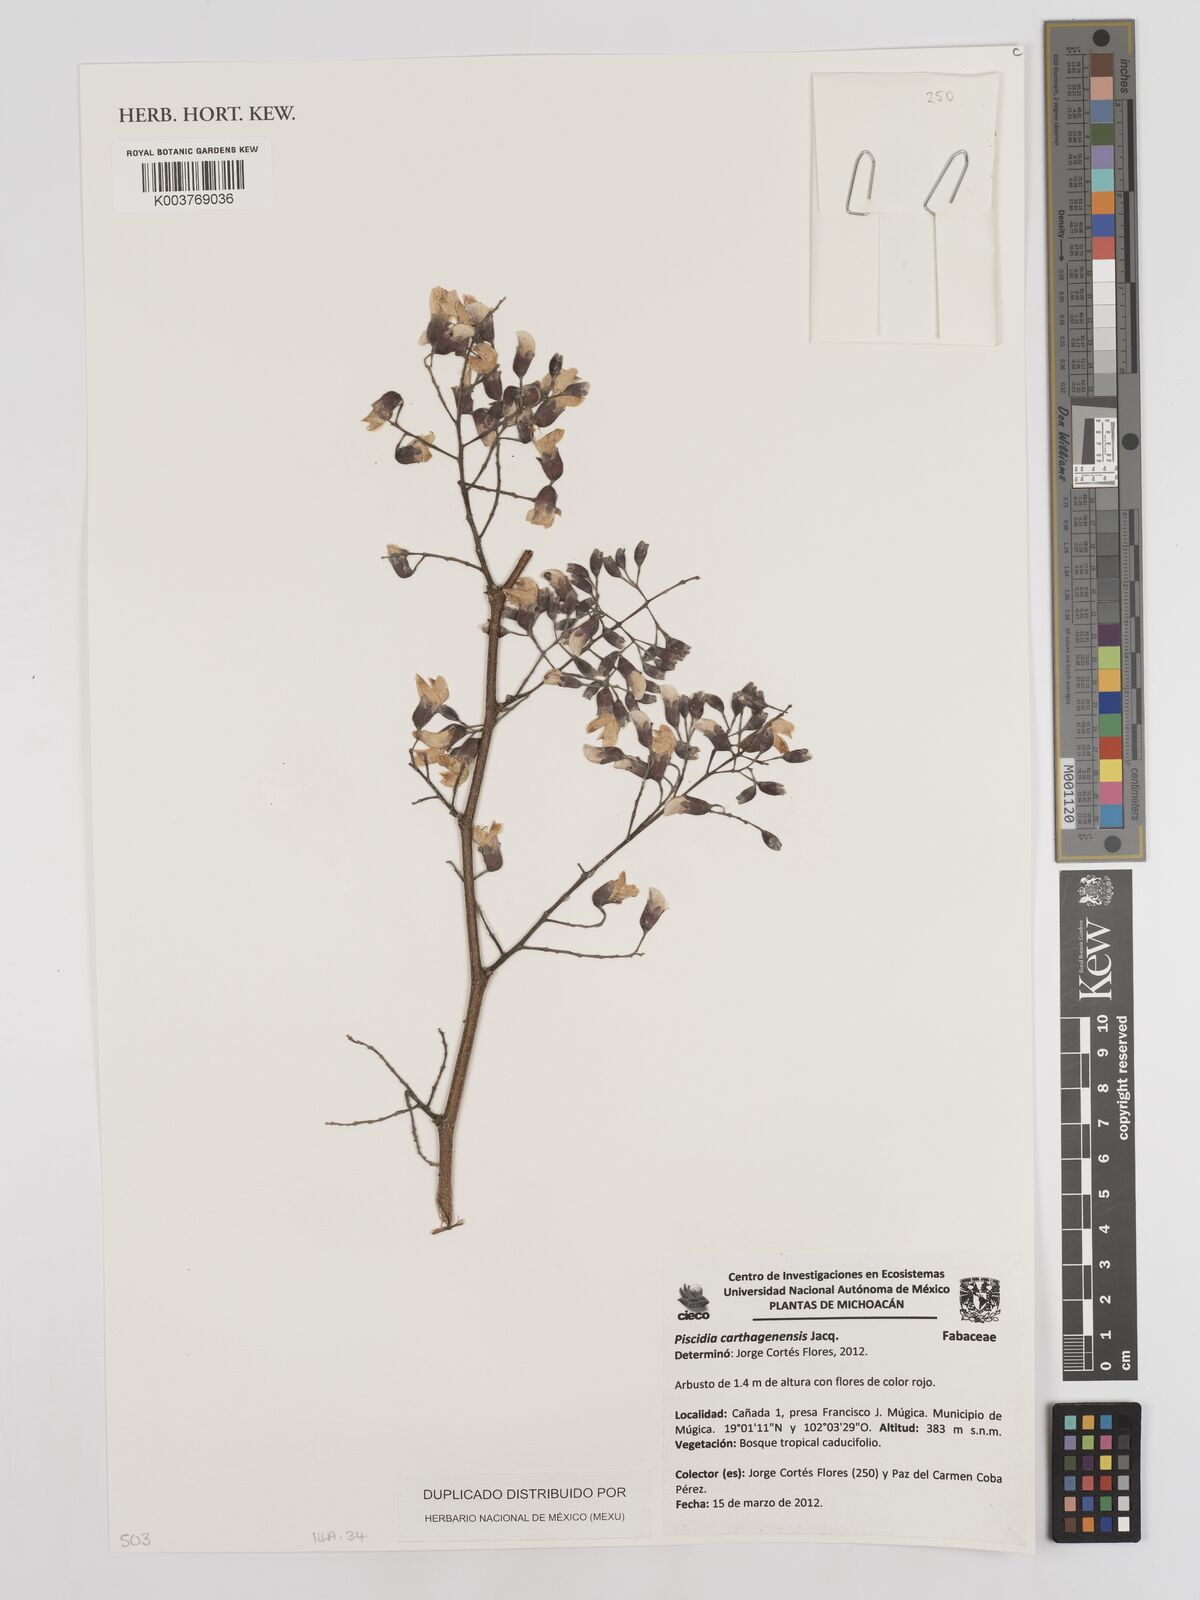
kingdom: Plantae
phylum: Tracheophyta
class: Magnoliopsida
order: Fabales
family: Fabaceae
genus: Piscidia
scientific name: Piscidia carthagenensis
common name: Stinkwood
